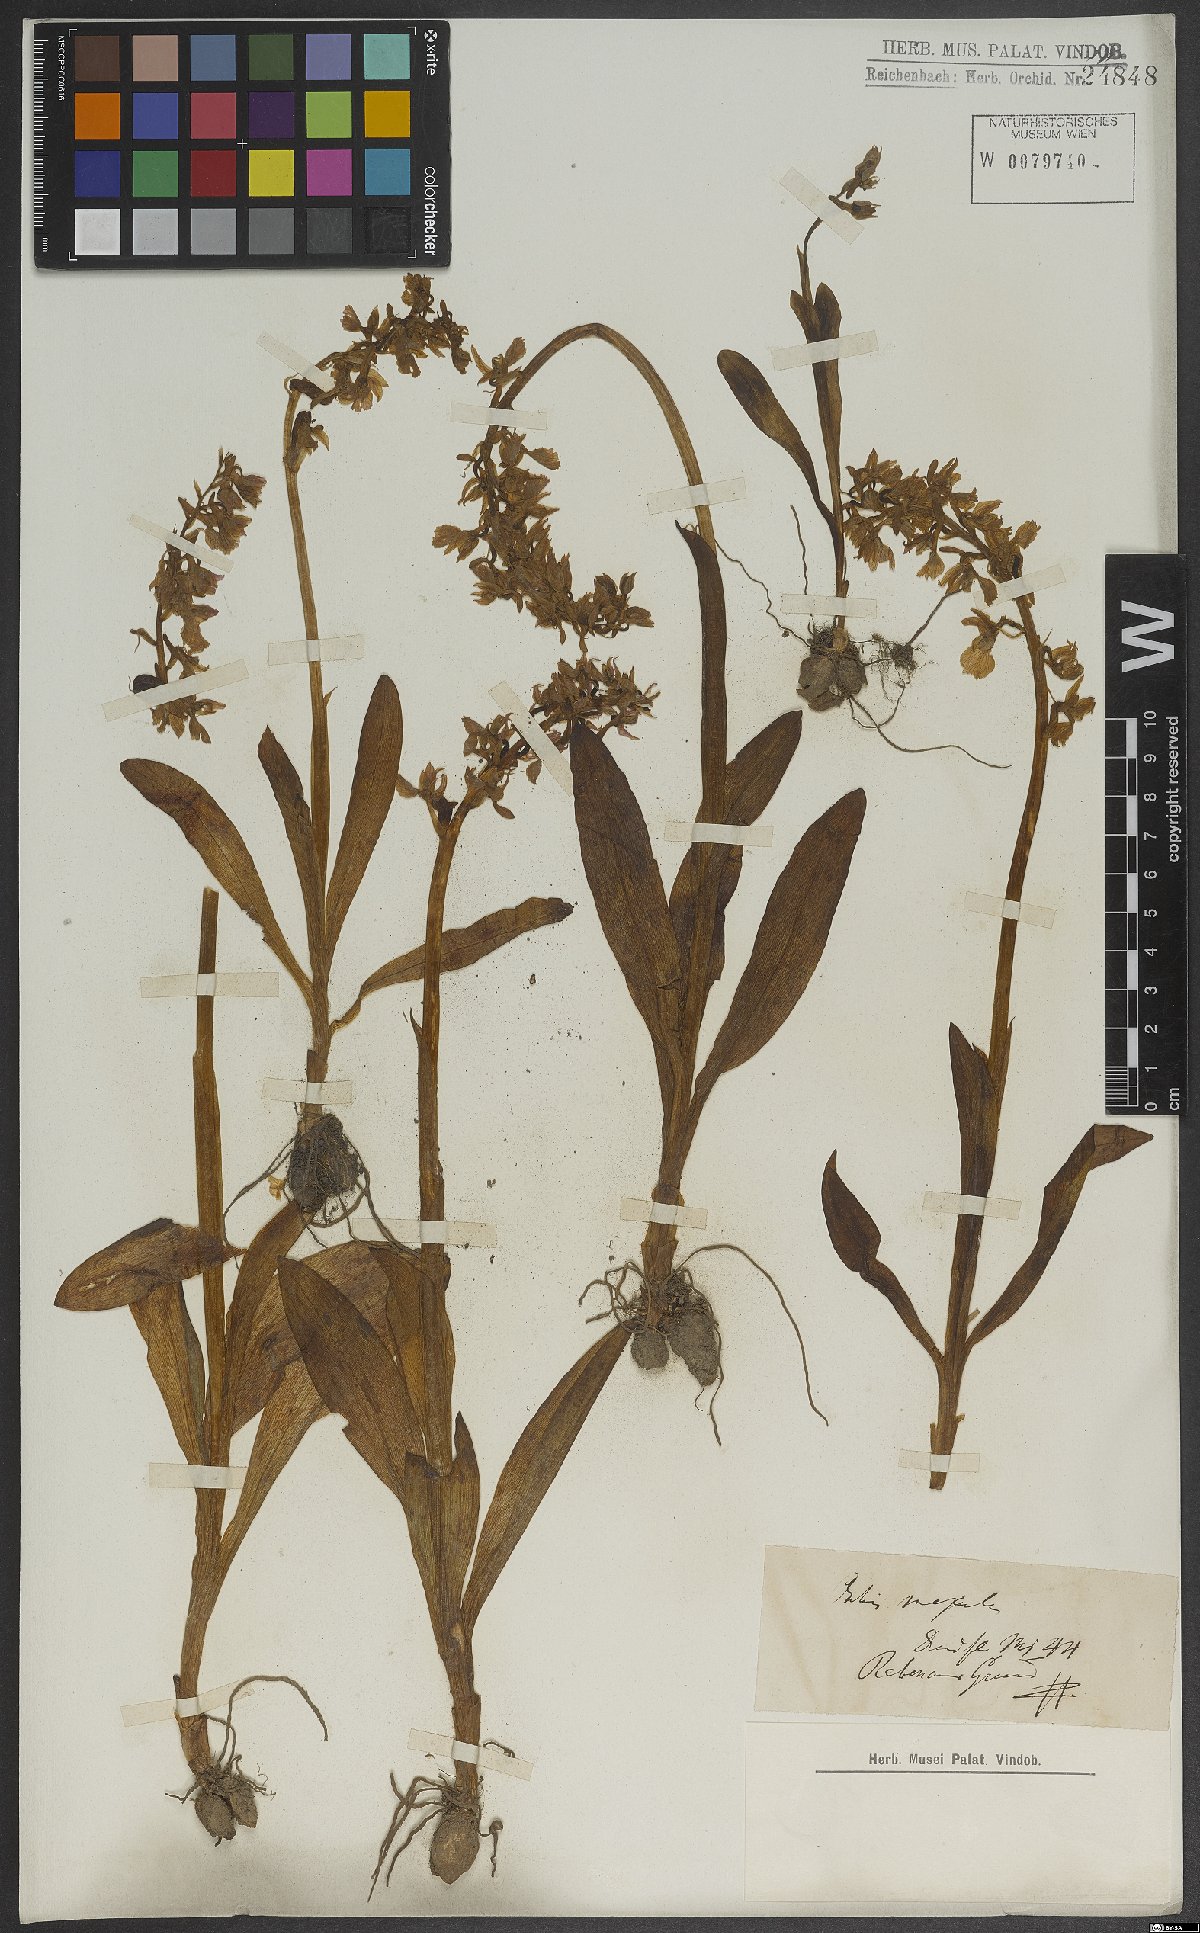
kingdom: Plantae
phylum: Tracheophyta
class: Liliopsida
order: Asparagales
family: Orchidaceae
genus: Orchis
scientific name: Orchis mascula
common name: Early-purple orchid
